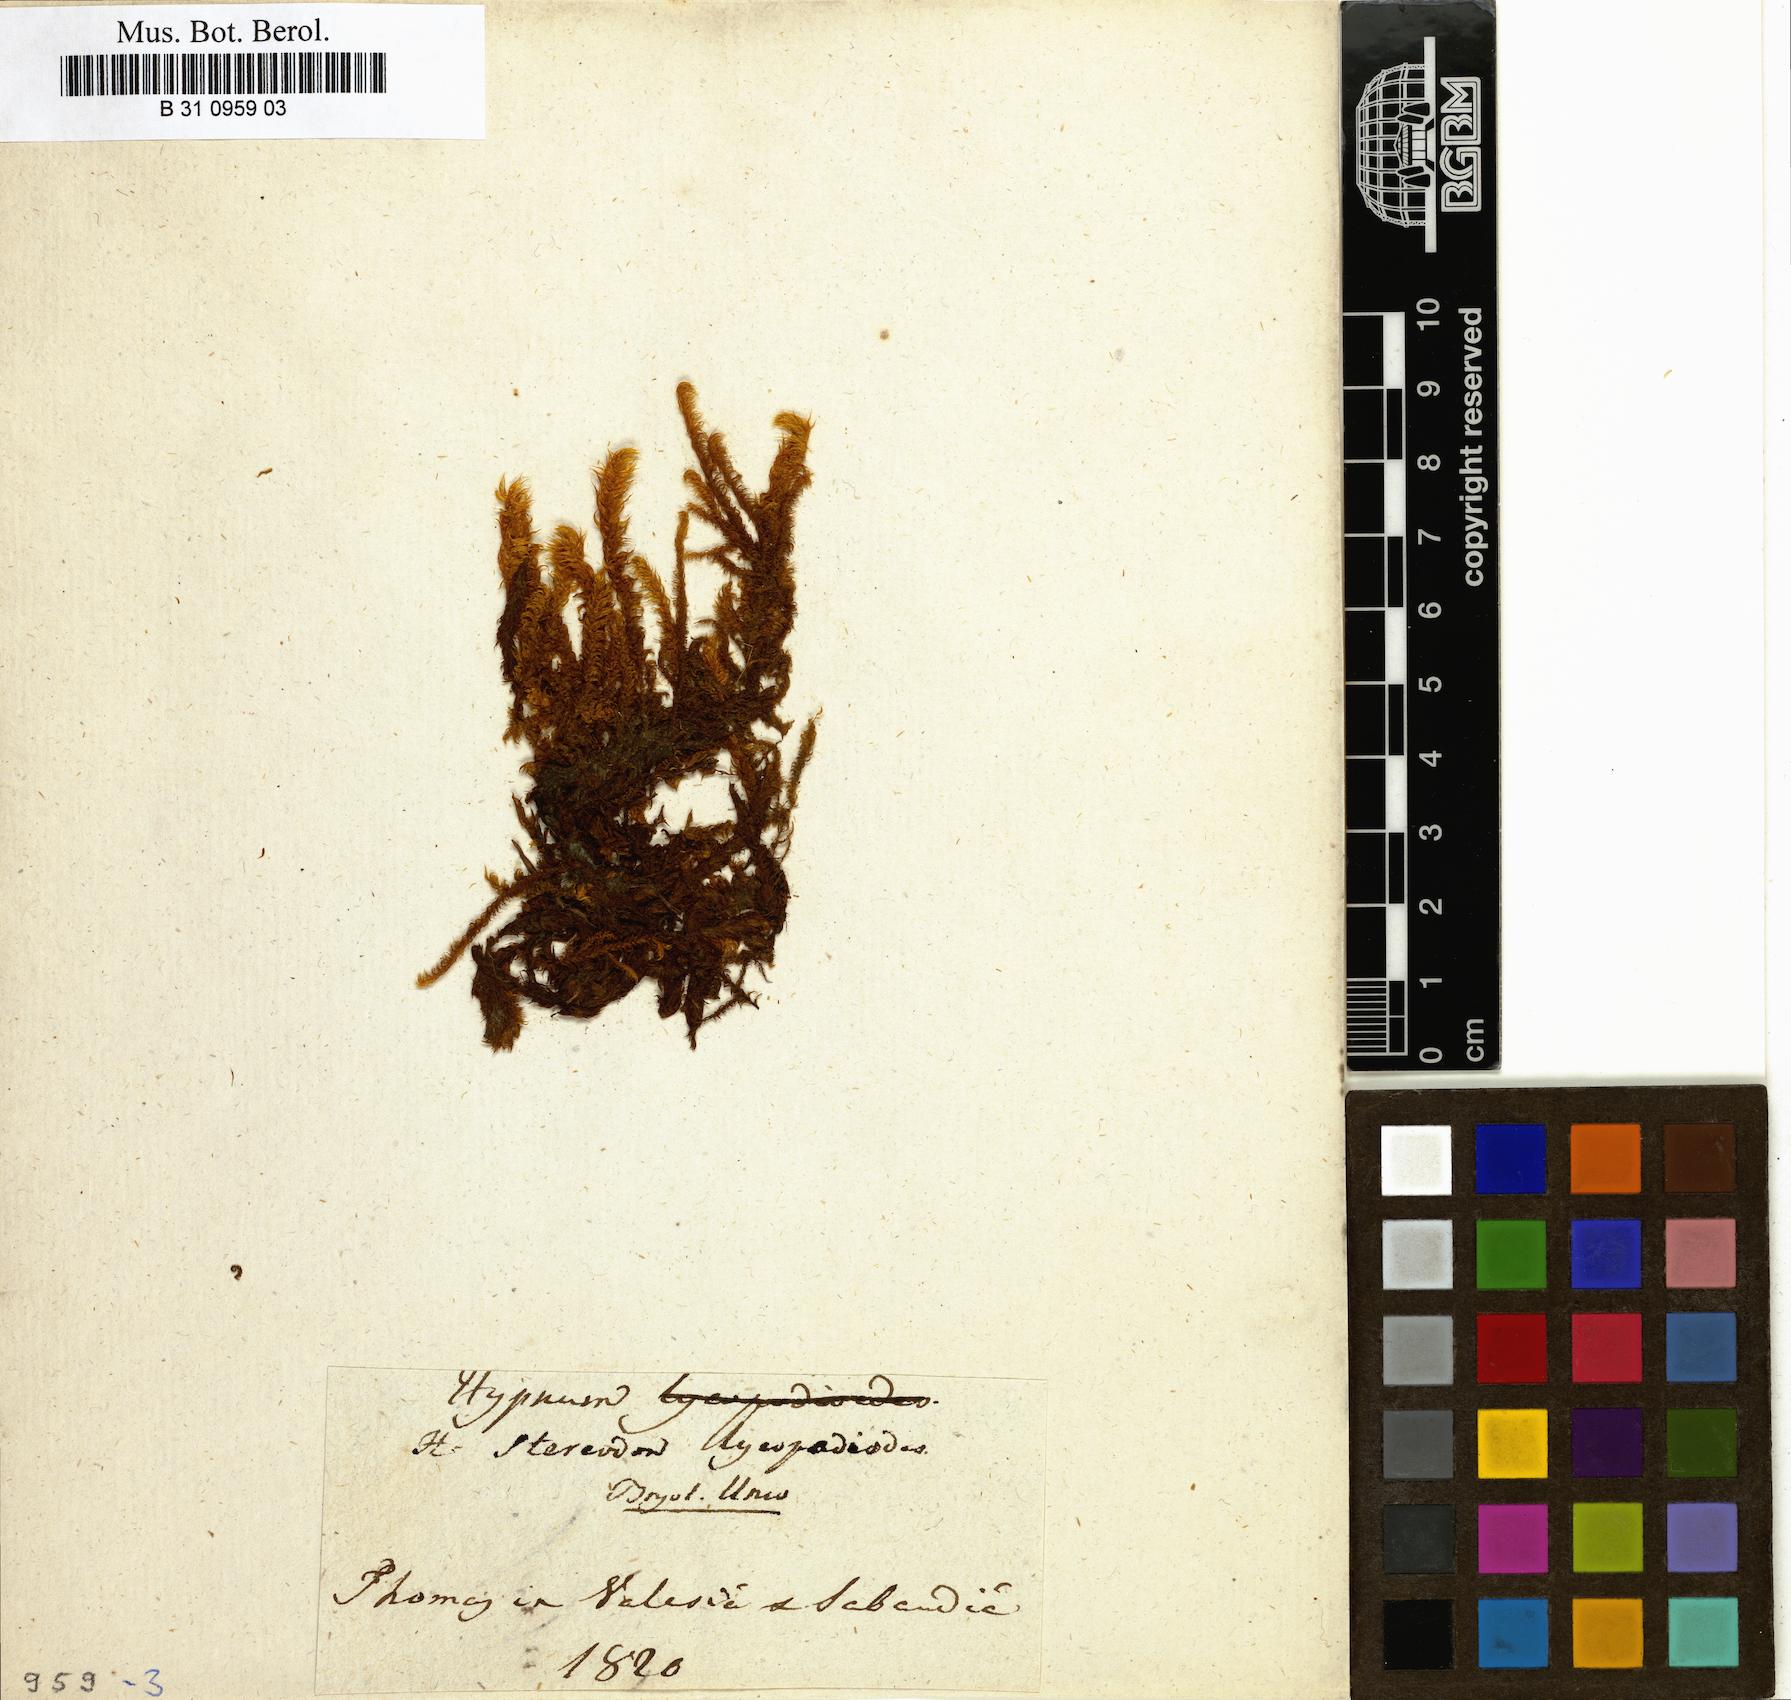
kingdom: Plantae
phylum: Bryophyta
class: Bryopsida
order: Hypnales
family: Amblystegiaceae
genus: Drepanocladus
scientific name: Drepanocladus lycopodioides
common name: Large hook-moss
